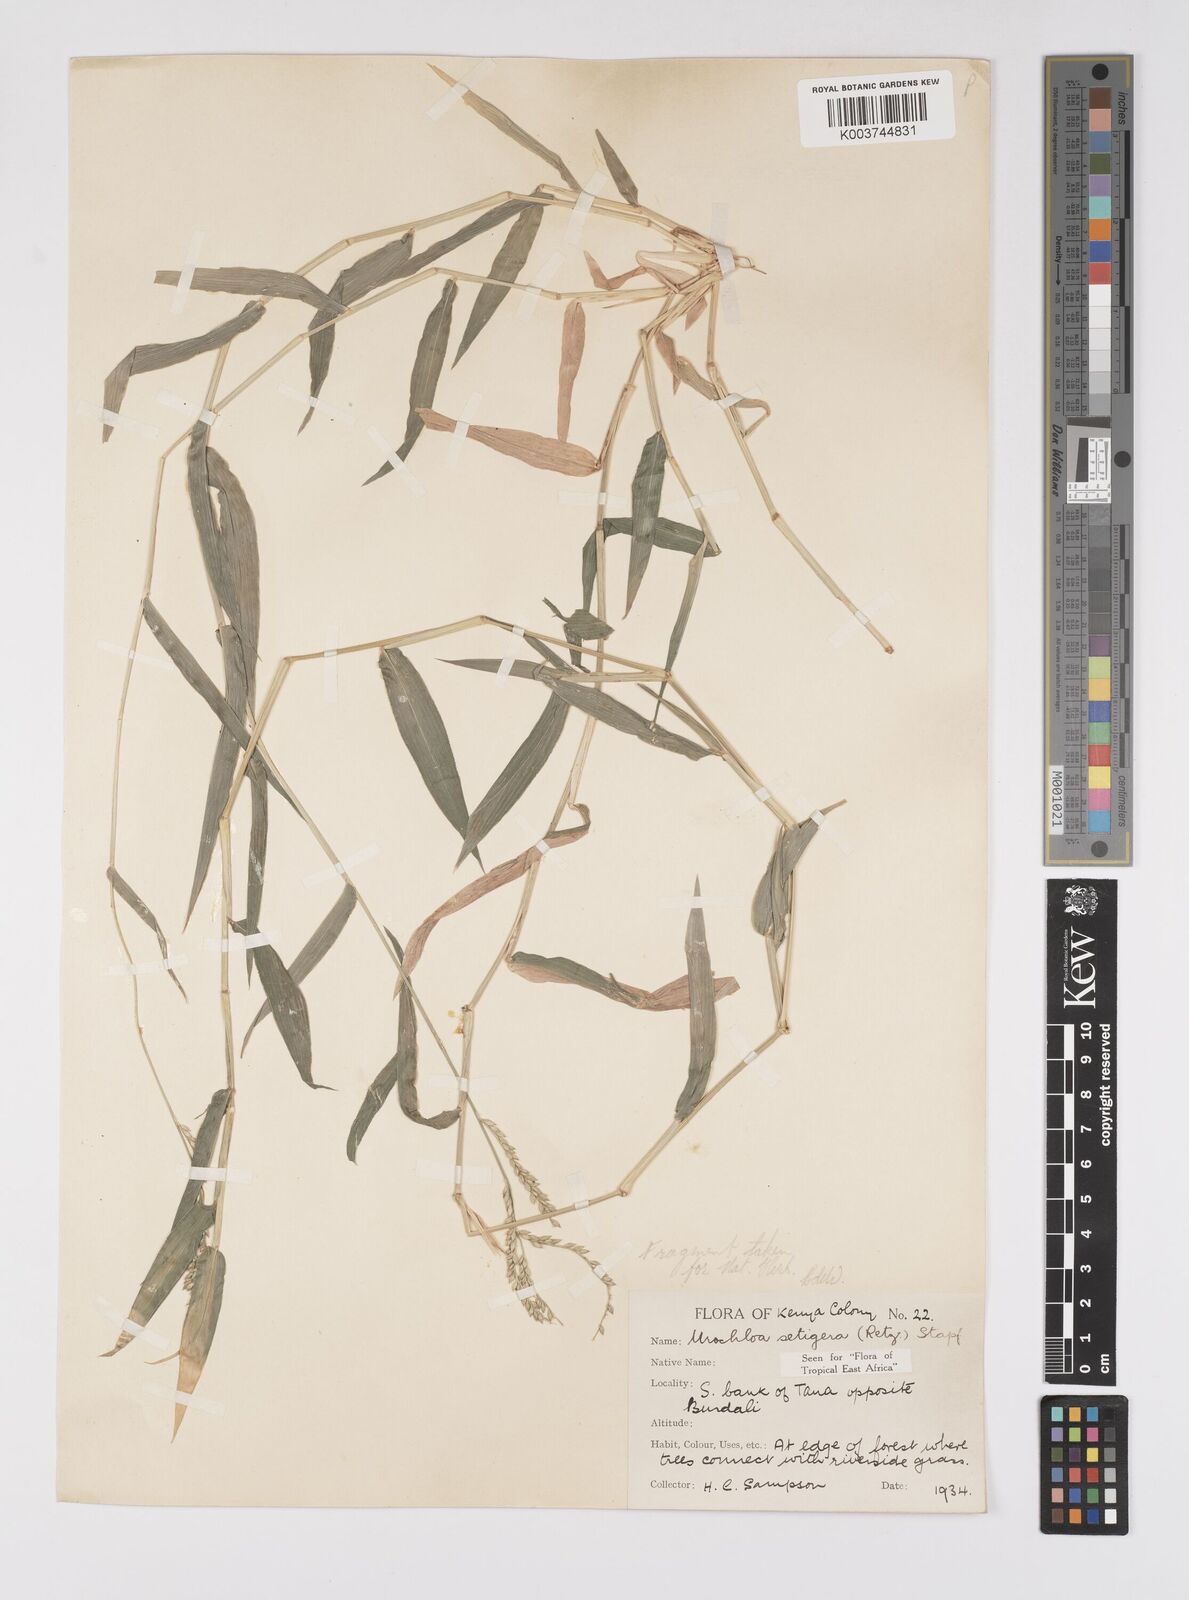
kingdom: Plantae
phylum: Tracheophyta
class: Liliopsida
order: Poales
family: Poaceae
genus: Urochloa
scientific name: Urochloa trichopodioides
